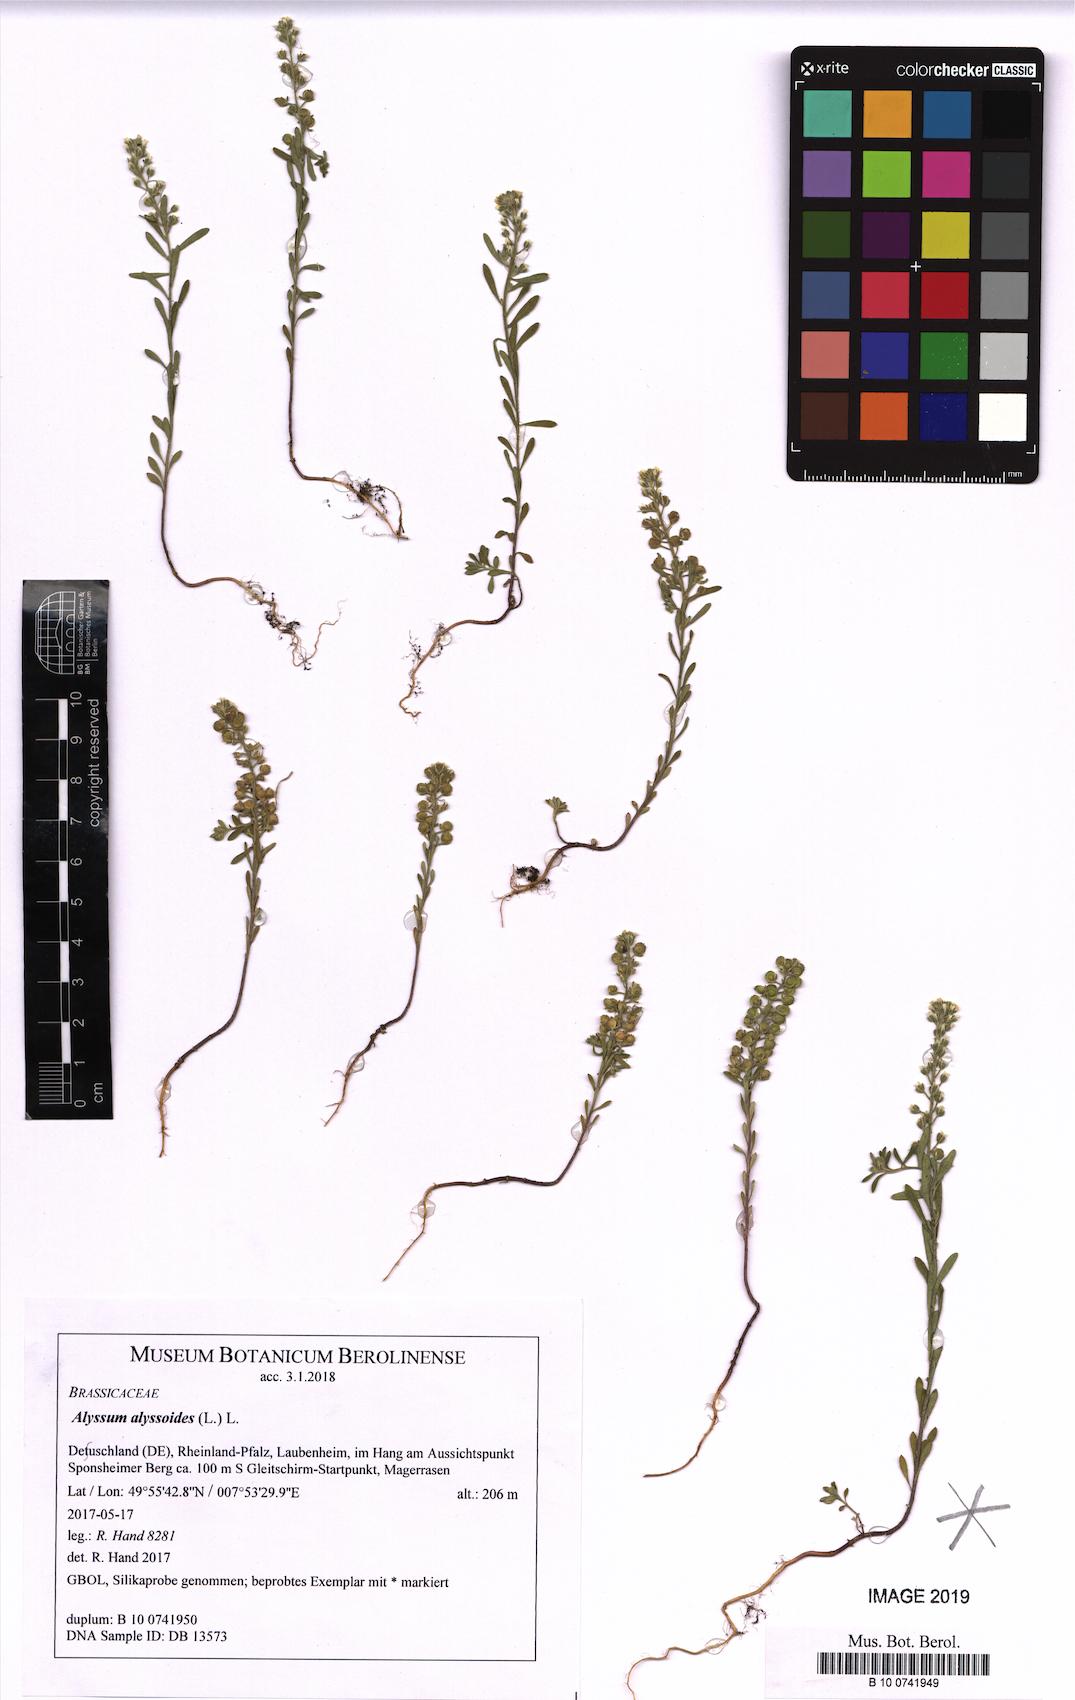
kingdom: Plantae
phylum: Tracheophyta
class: Magnoliopsida
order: Brassicales
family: Brassicaceae
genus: Alyssum
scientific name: Alyssum alyssoides
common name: Small alison
